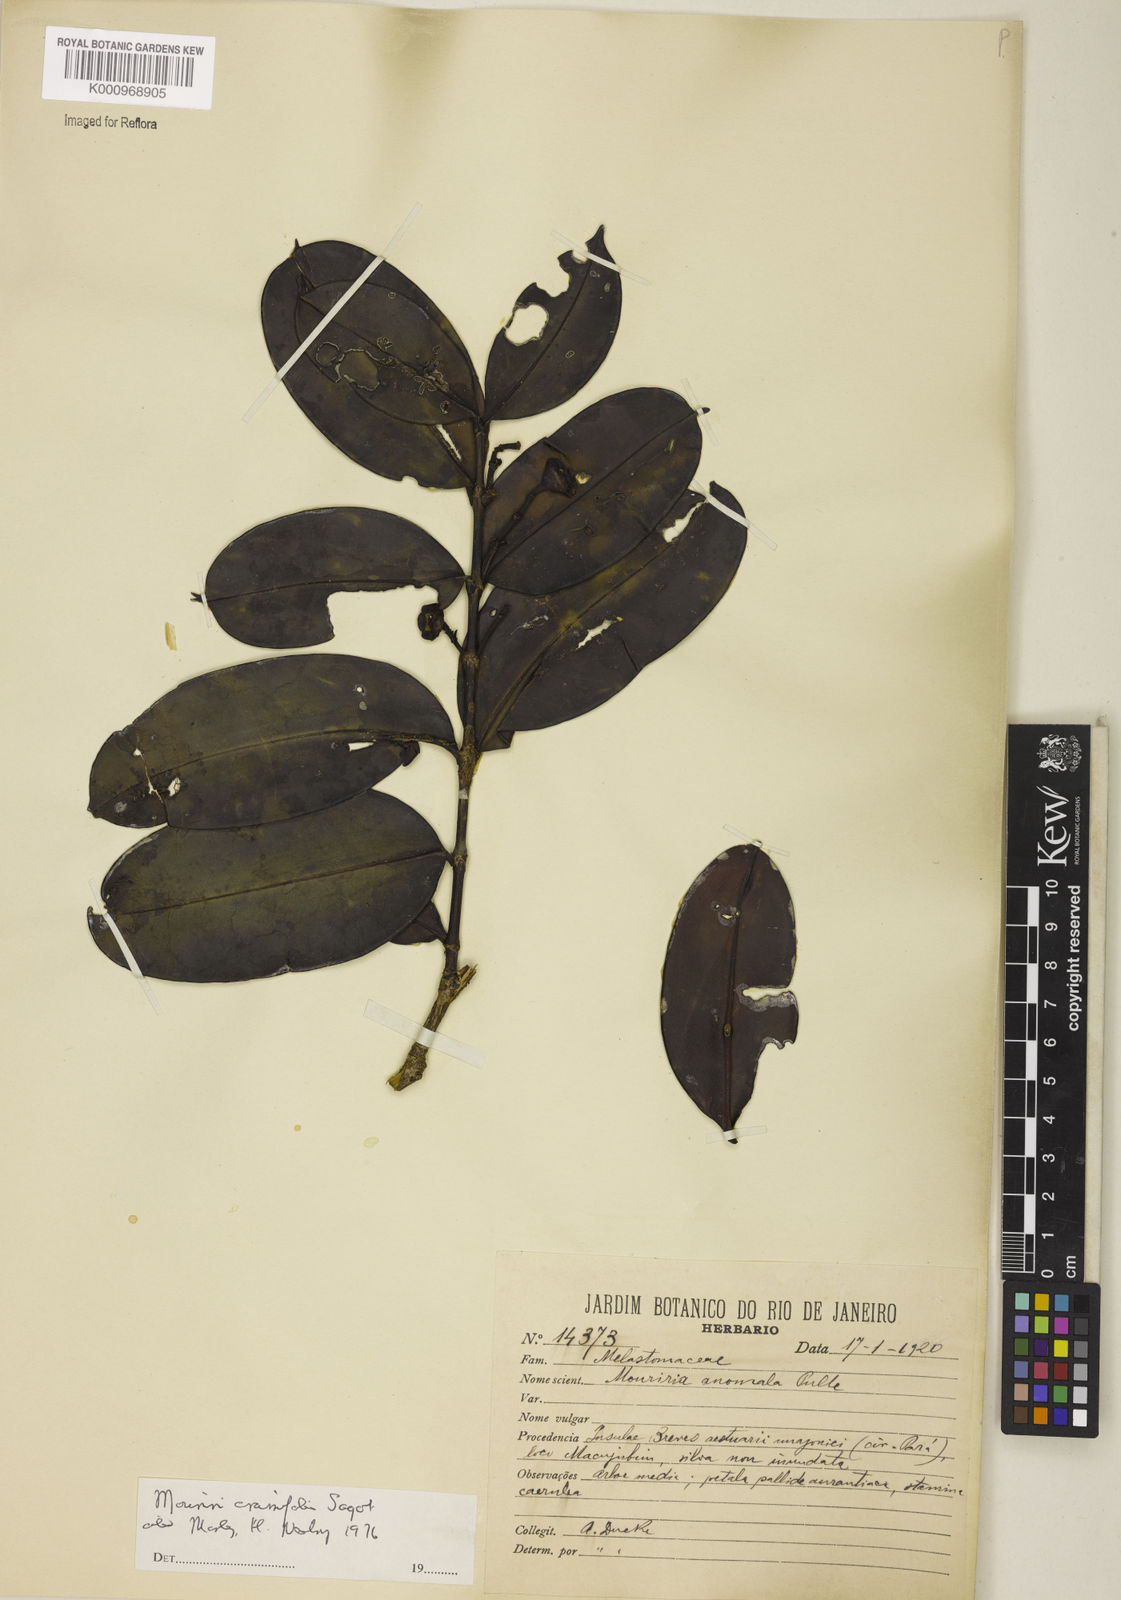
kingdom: Plantae
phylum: Tracheophyta
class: Magnoliopsida
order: Myrtales
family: Melastomataceae
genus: Mouriri
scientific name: Mouriri crassifolia
